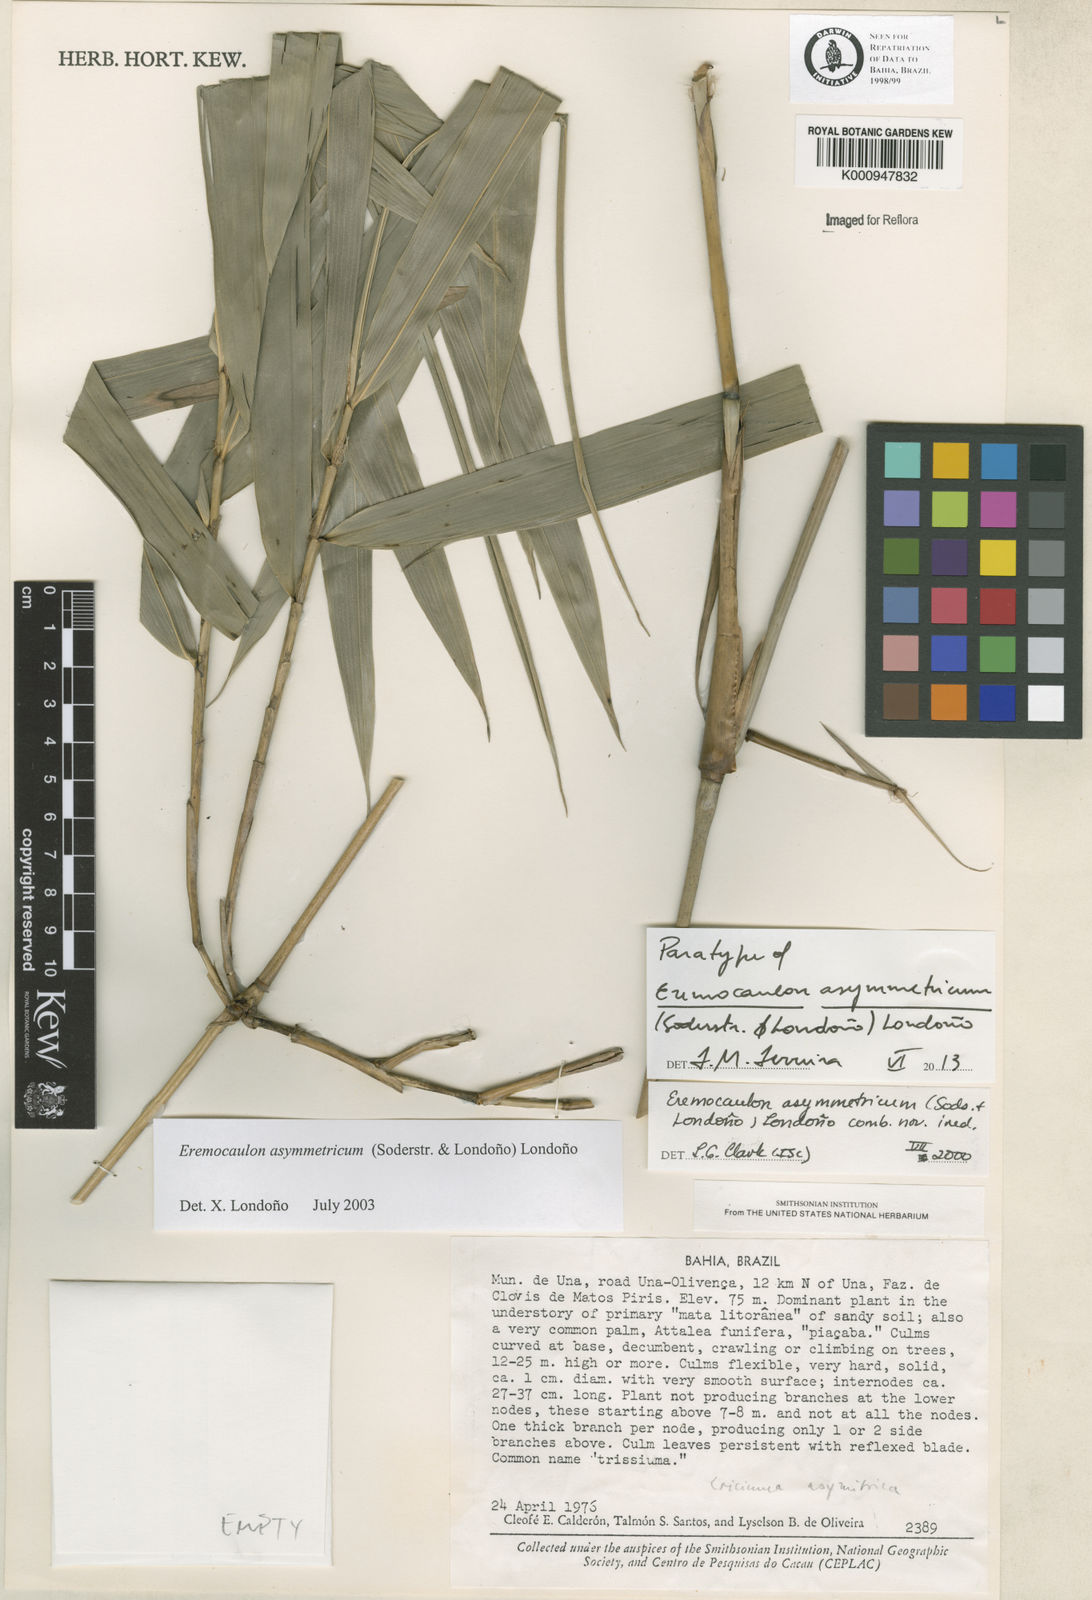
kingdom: Plantae
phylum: Tracheophyta
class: Liliopsida
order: Poales
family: Poaceae
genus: Eremocaulon
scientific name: Eremocaulon
